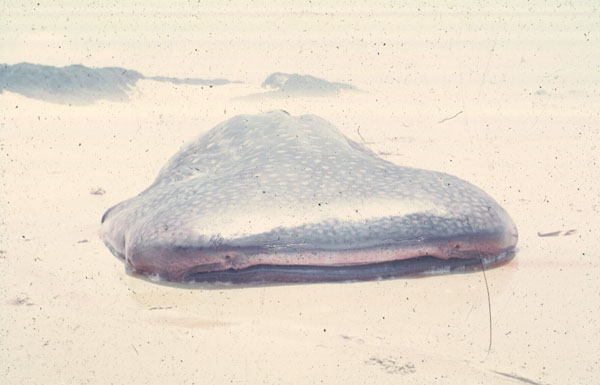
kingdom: Animalia
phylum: Chordata
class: Elasmobranchii
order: Orectolobiformes
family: Rhincodontidae
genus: Rhincodon
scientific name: Rhincodon typus
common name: Whale shark
